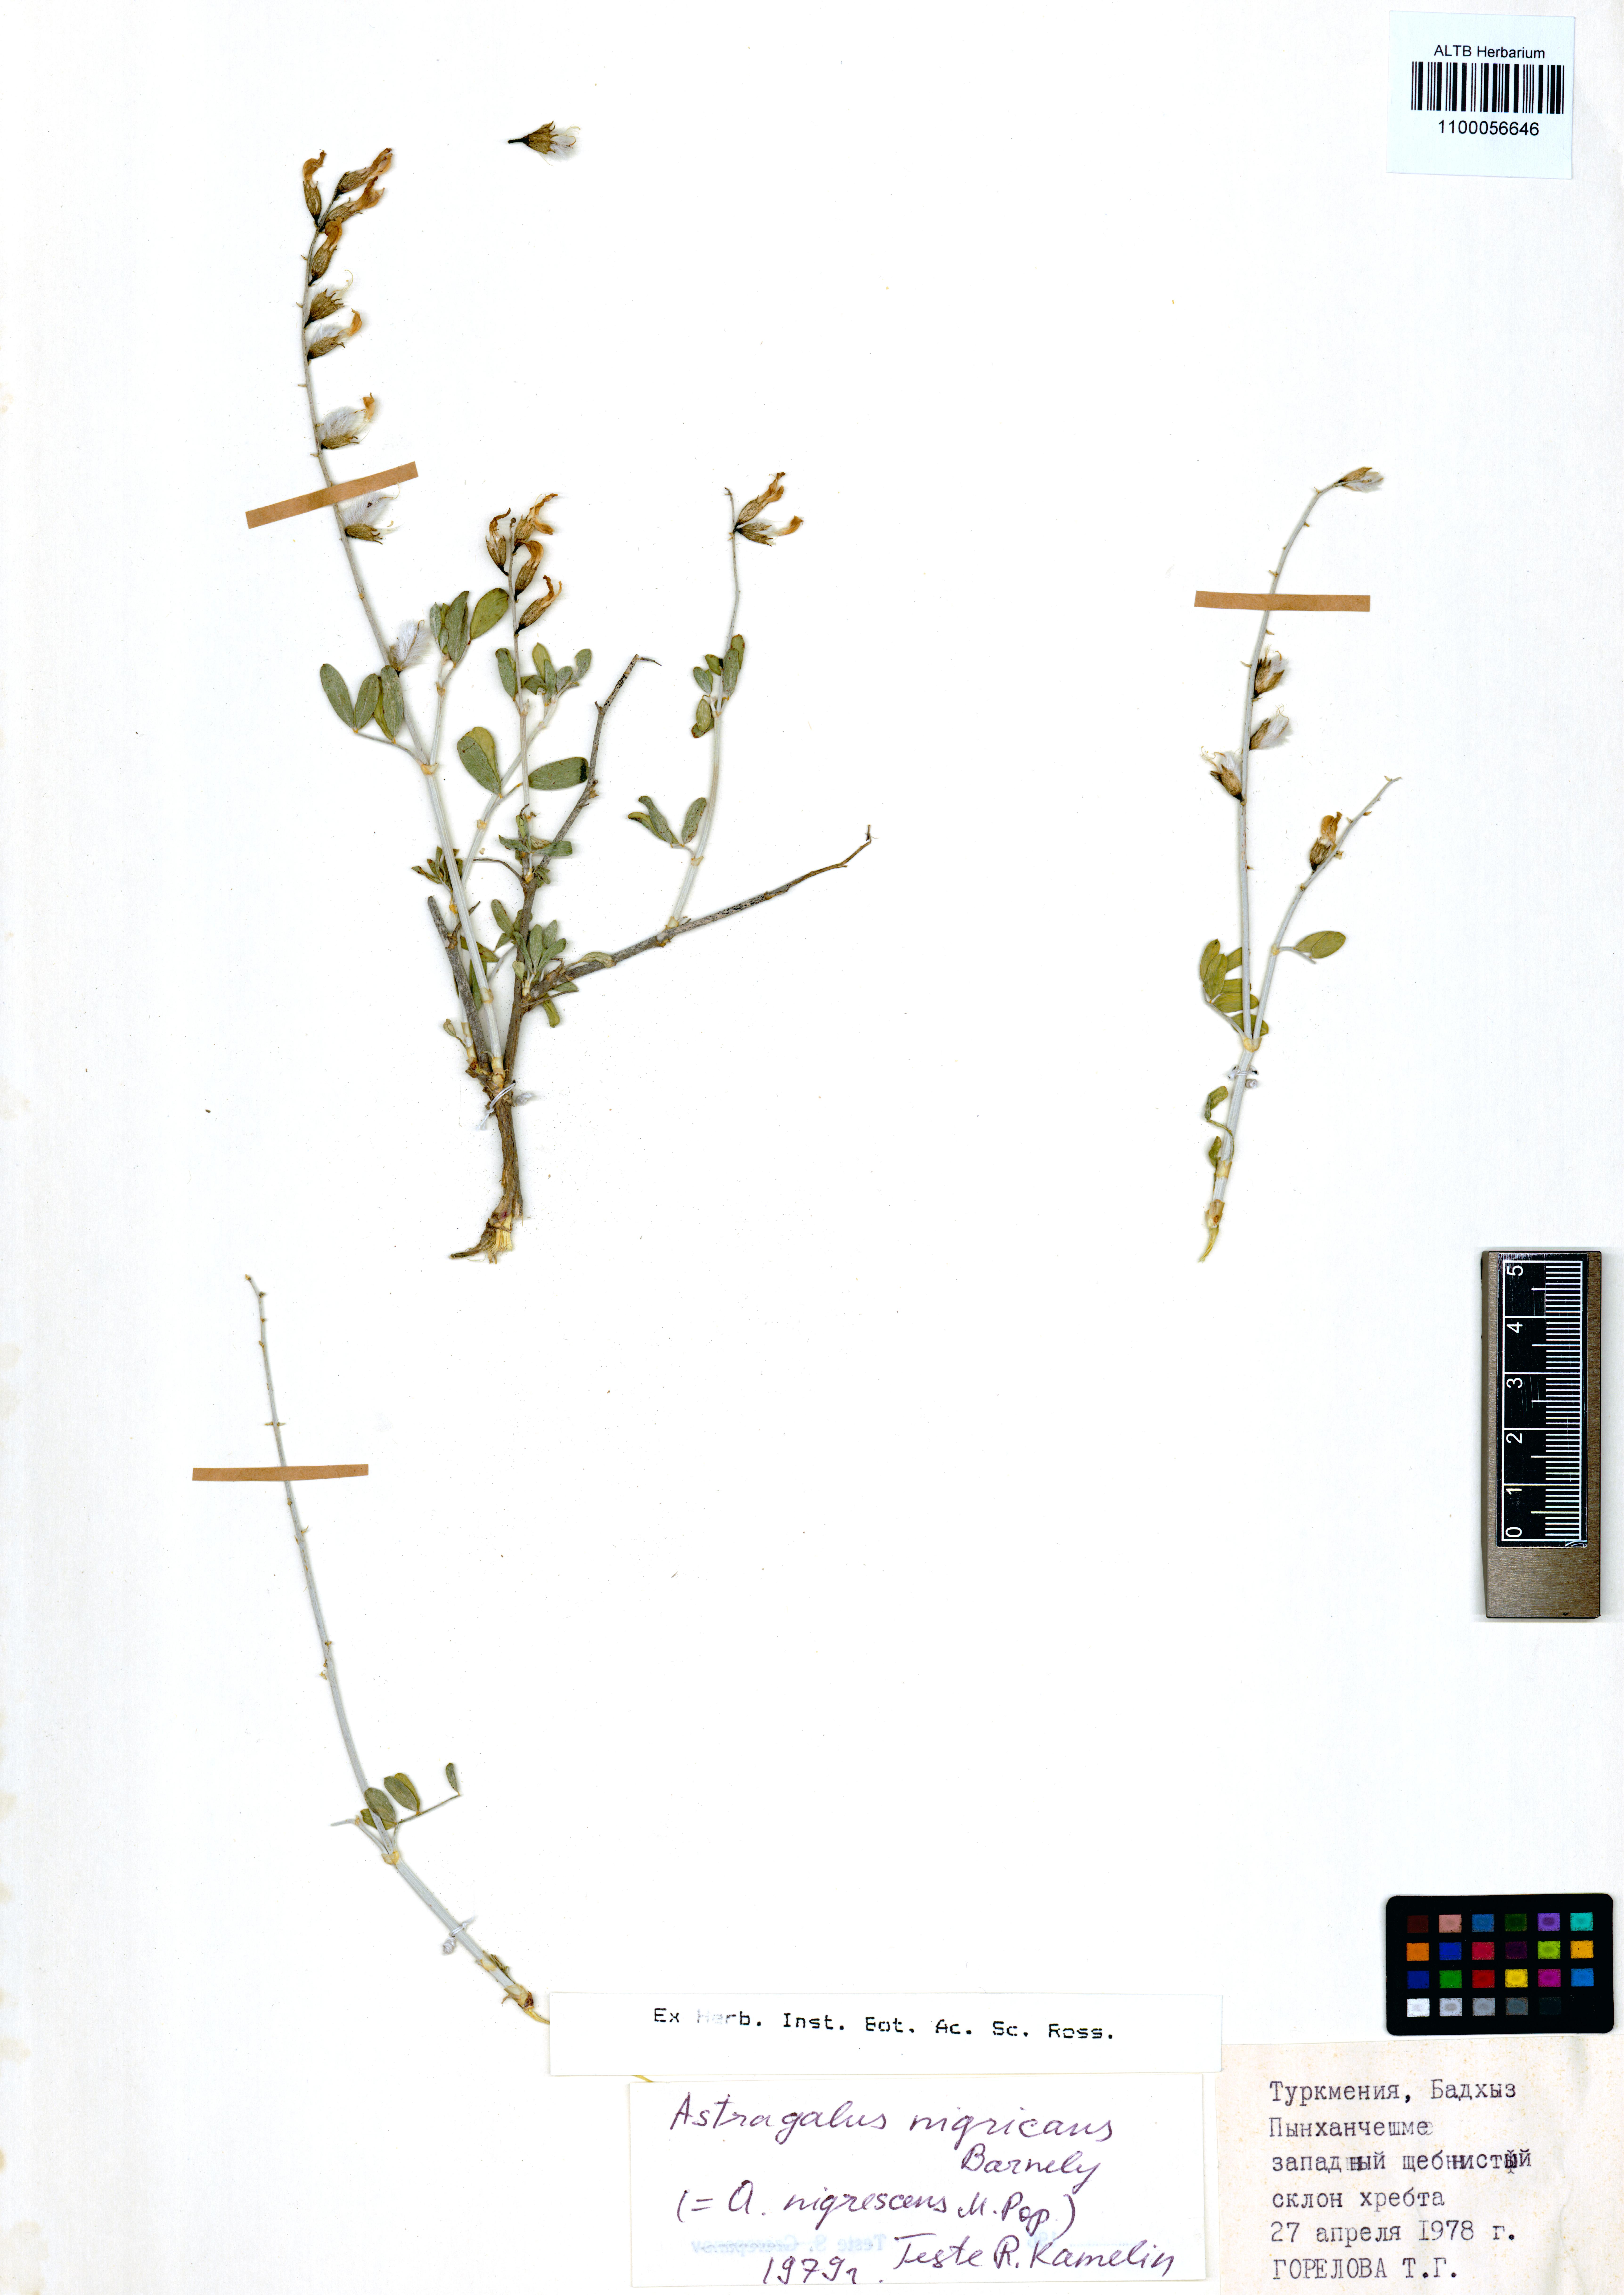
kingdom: Plantae
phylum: Tracheophyta
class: Magnoliopsida
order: Fabales
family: Fabaceae
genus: Astragalus
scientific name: Astragalus nigricans
